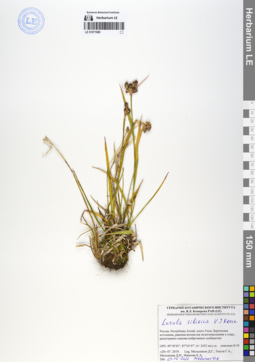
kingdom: Plantae
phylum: Tracheophyta
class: Liliopsida
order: Poales
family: Juncaceae
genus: Luzula
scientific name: Luzula multiflora
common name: Heath wood-rush
